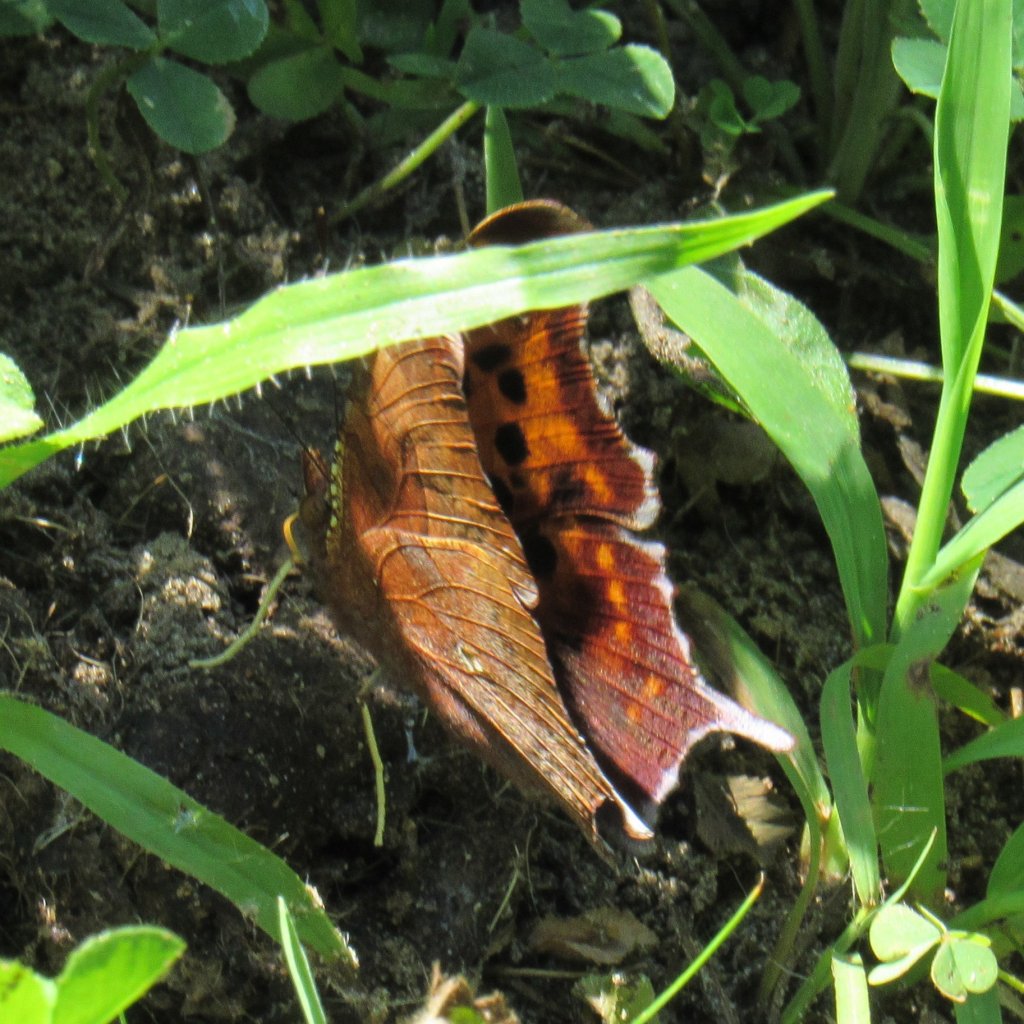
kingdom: Animalia
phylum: Arthropoda
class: Insecta
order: Lepidoptera
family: Nymphalidae
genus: Polygonia
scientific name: Polygonia interrogationis
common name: Question Mark
